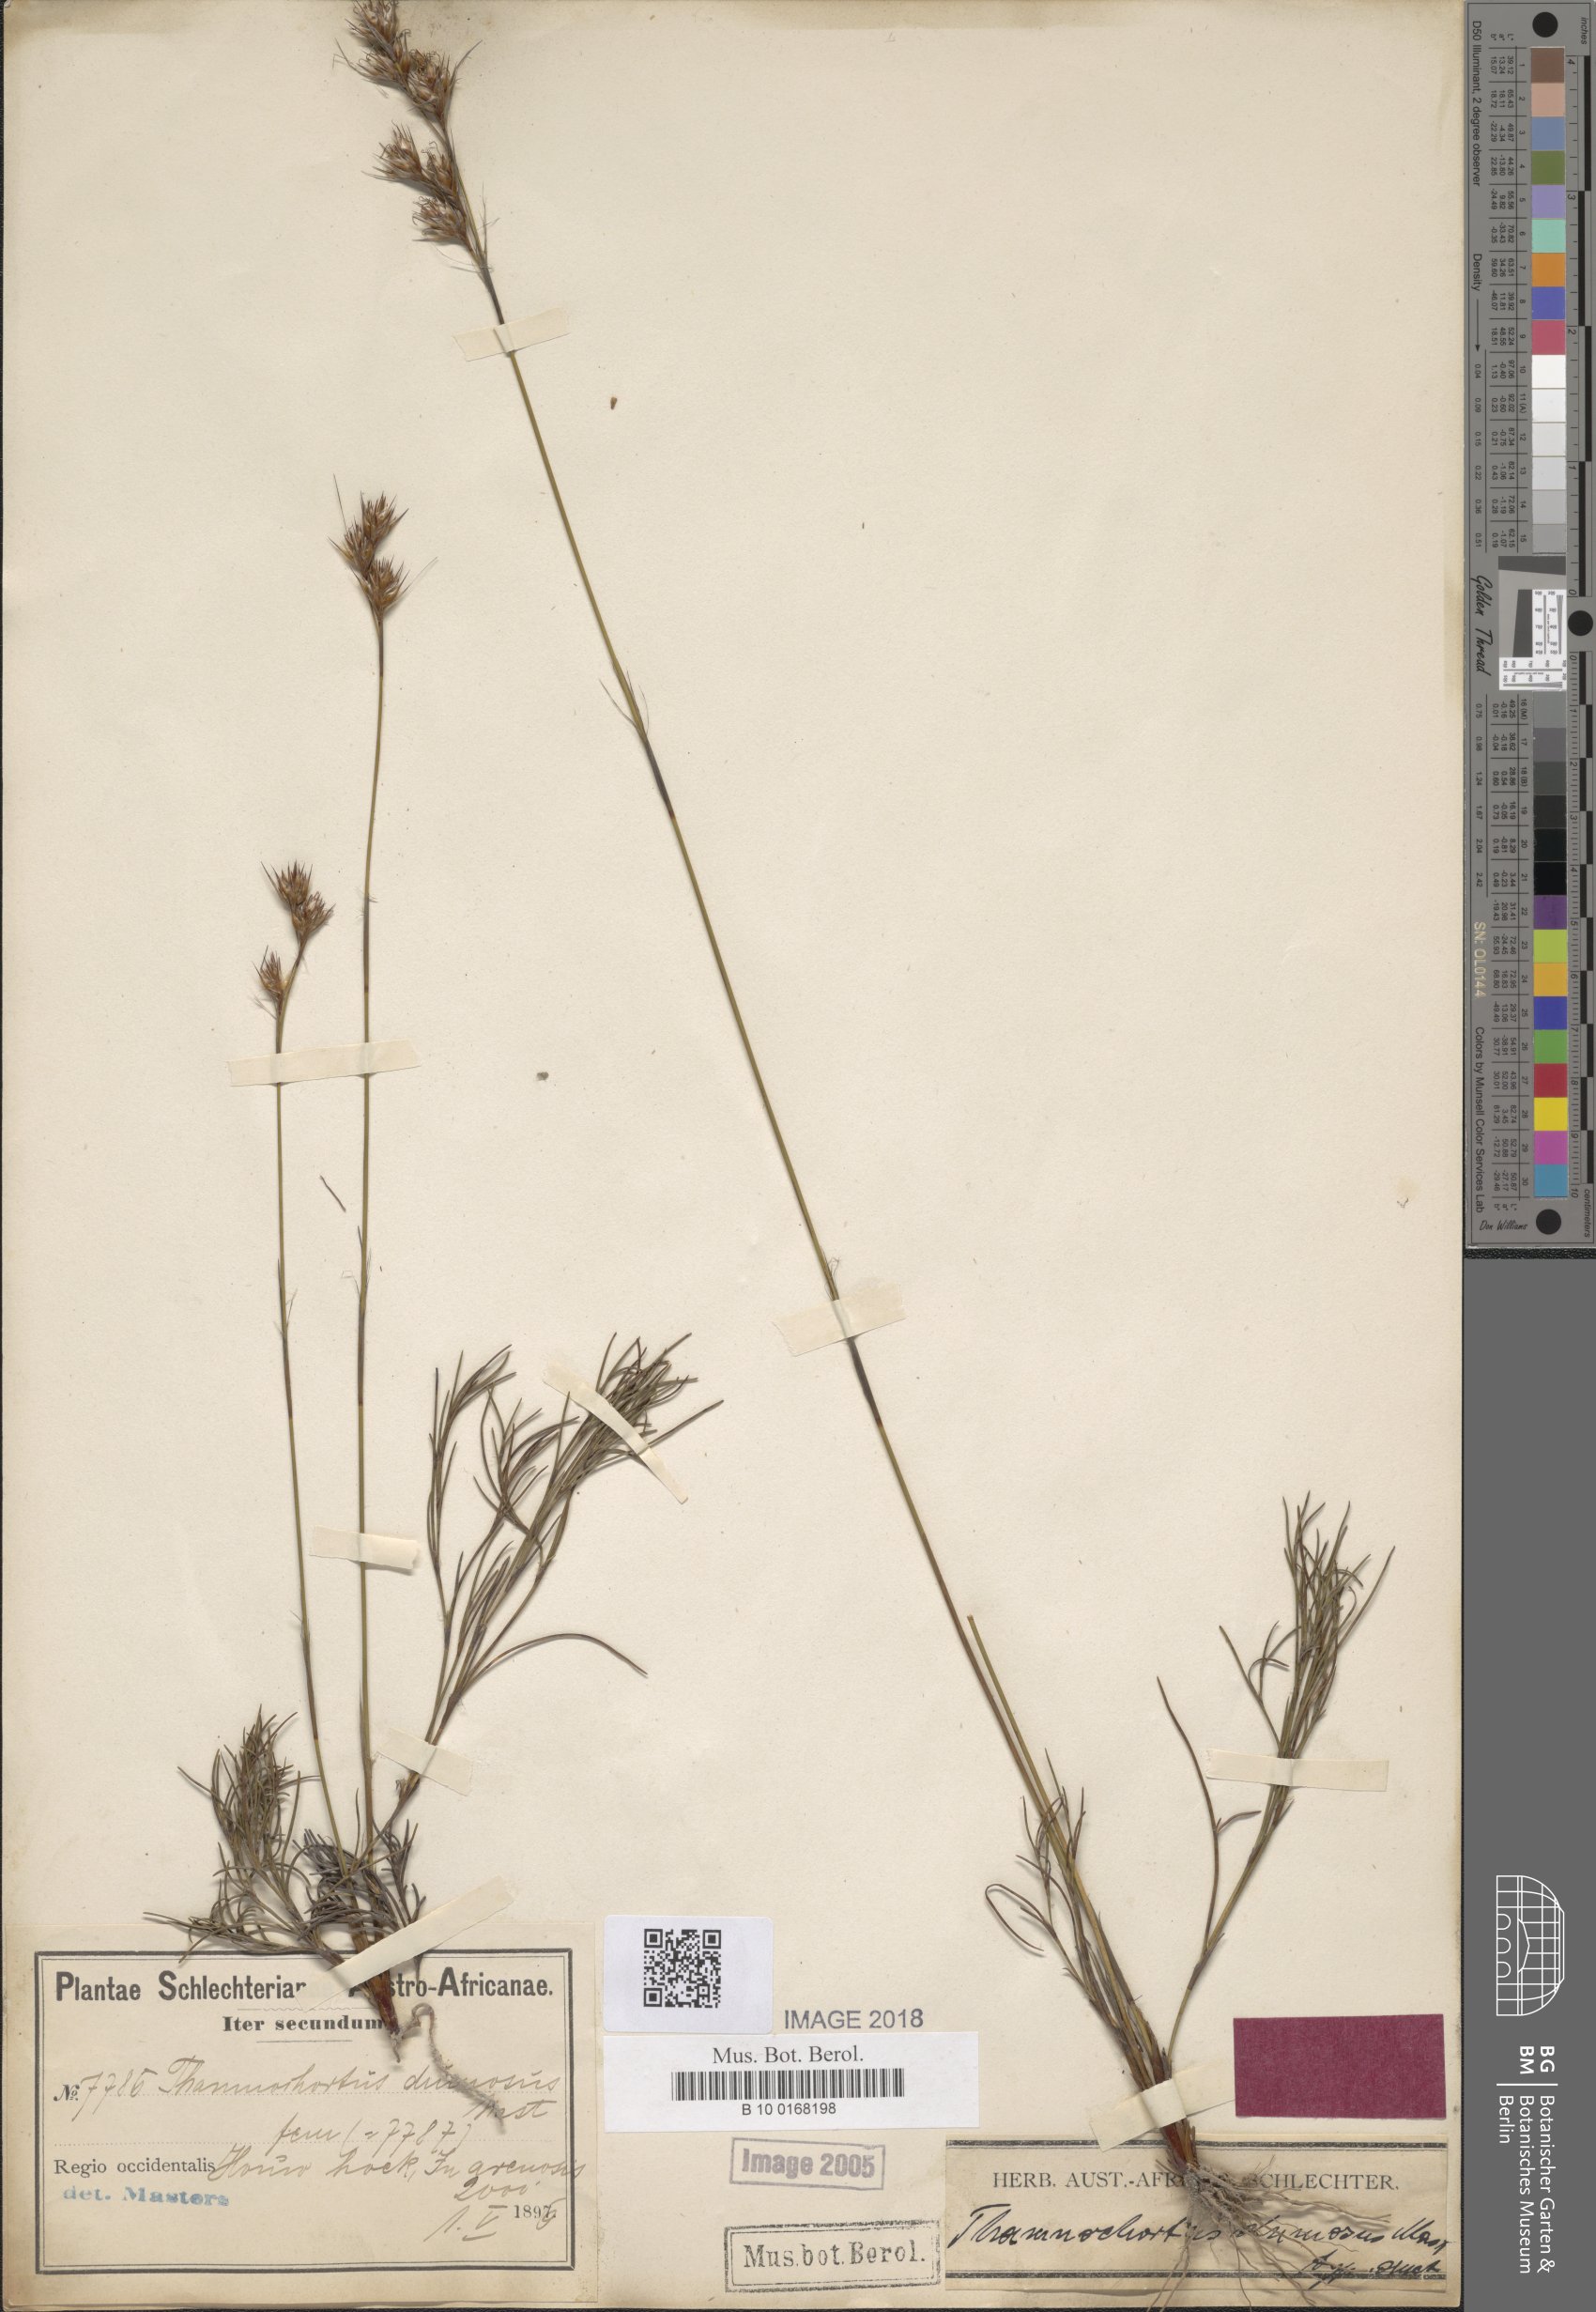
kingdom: Plantae
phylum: Tracheophyta
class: Liliopsida
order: Poales
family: Restionaceae
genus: Thamnochortus
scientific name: Thamnochortus dumosus
